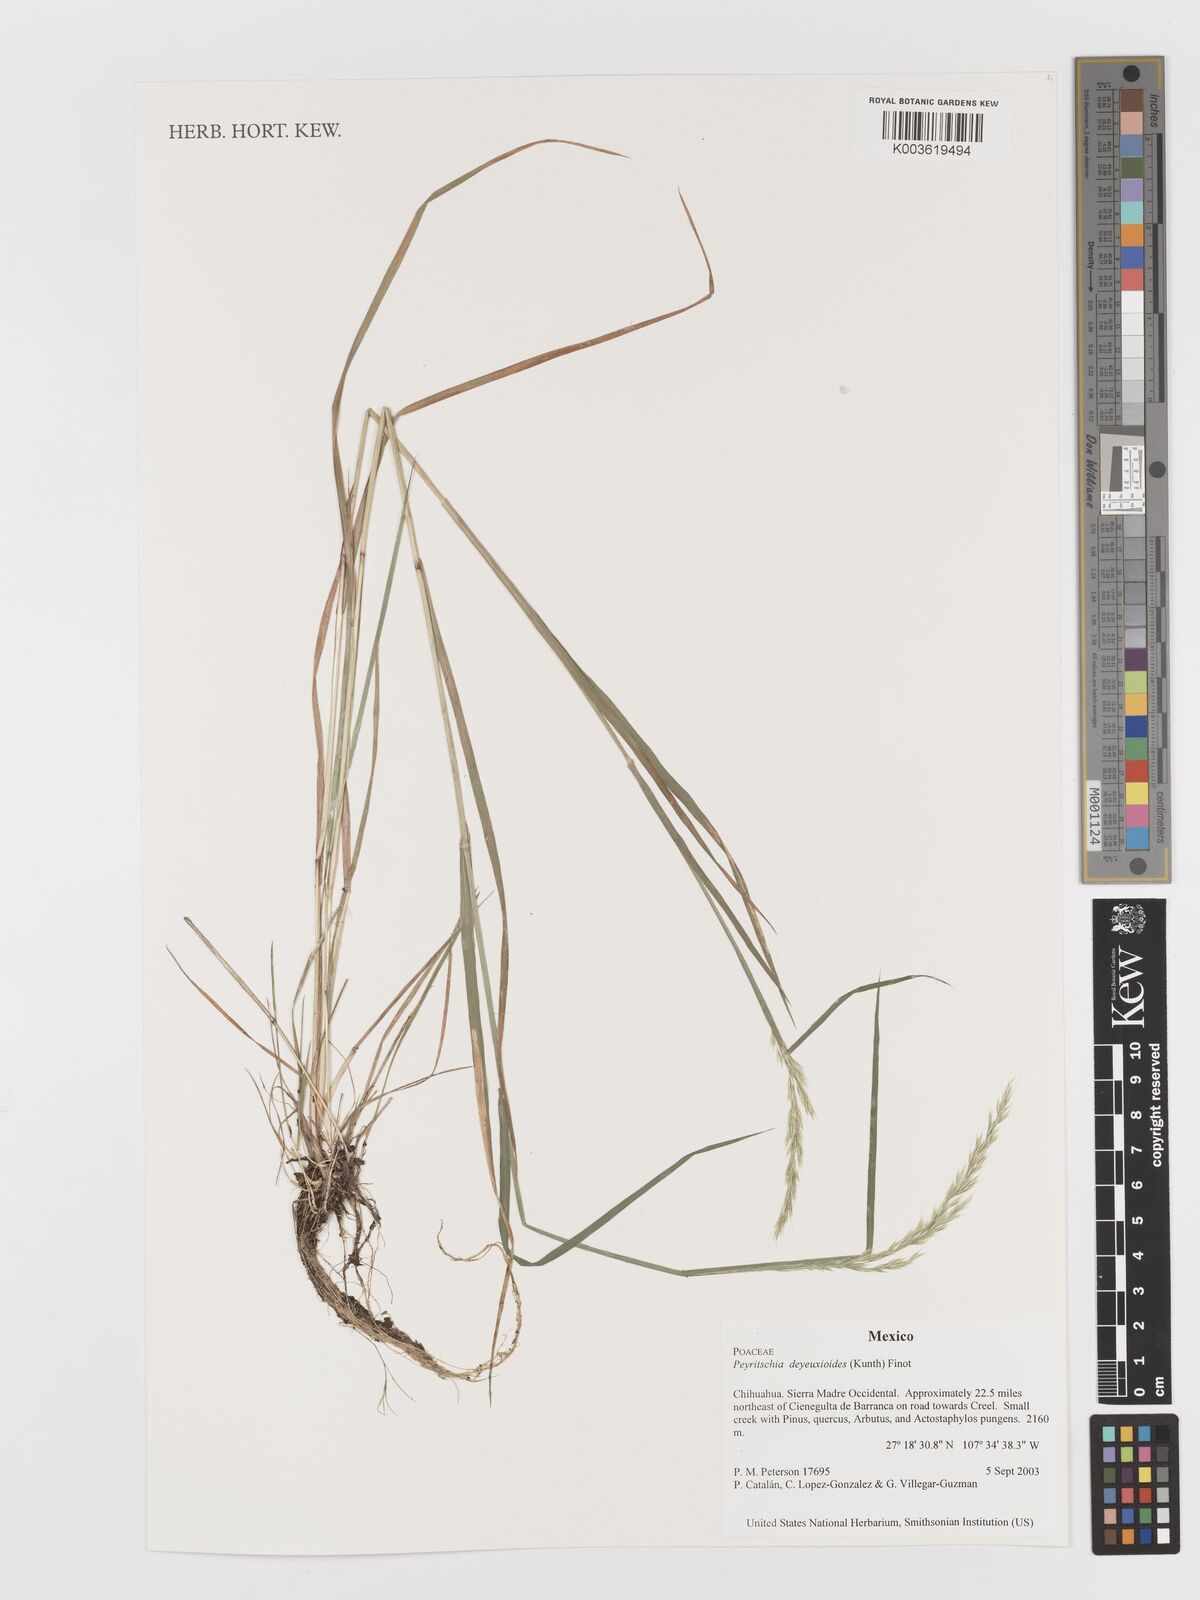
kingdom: Plantae
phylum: Tracheophyta
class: Liliopsida
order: Poales
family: Poaceae
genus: Peyritschia
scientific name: Peyritschia deyeuxioides
